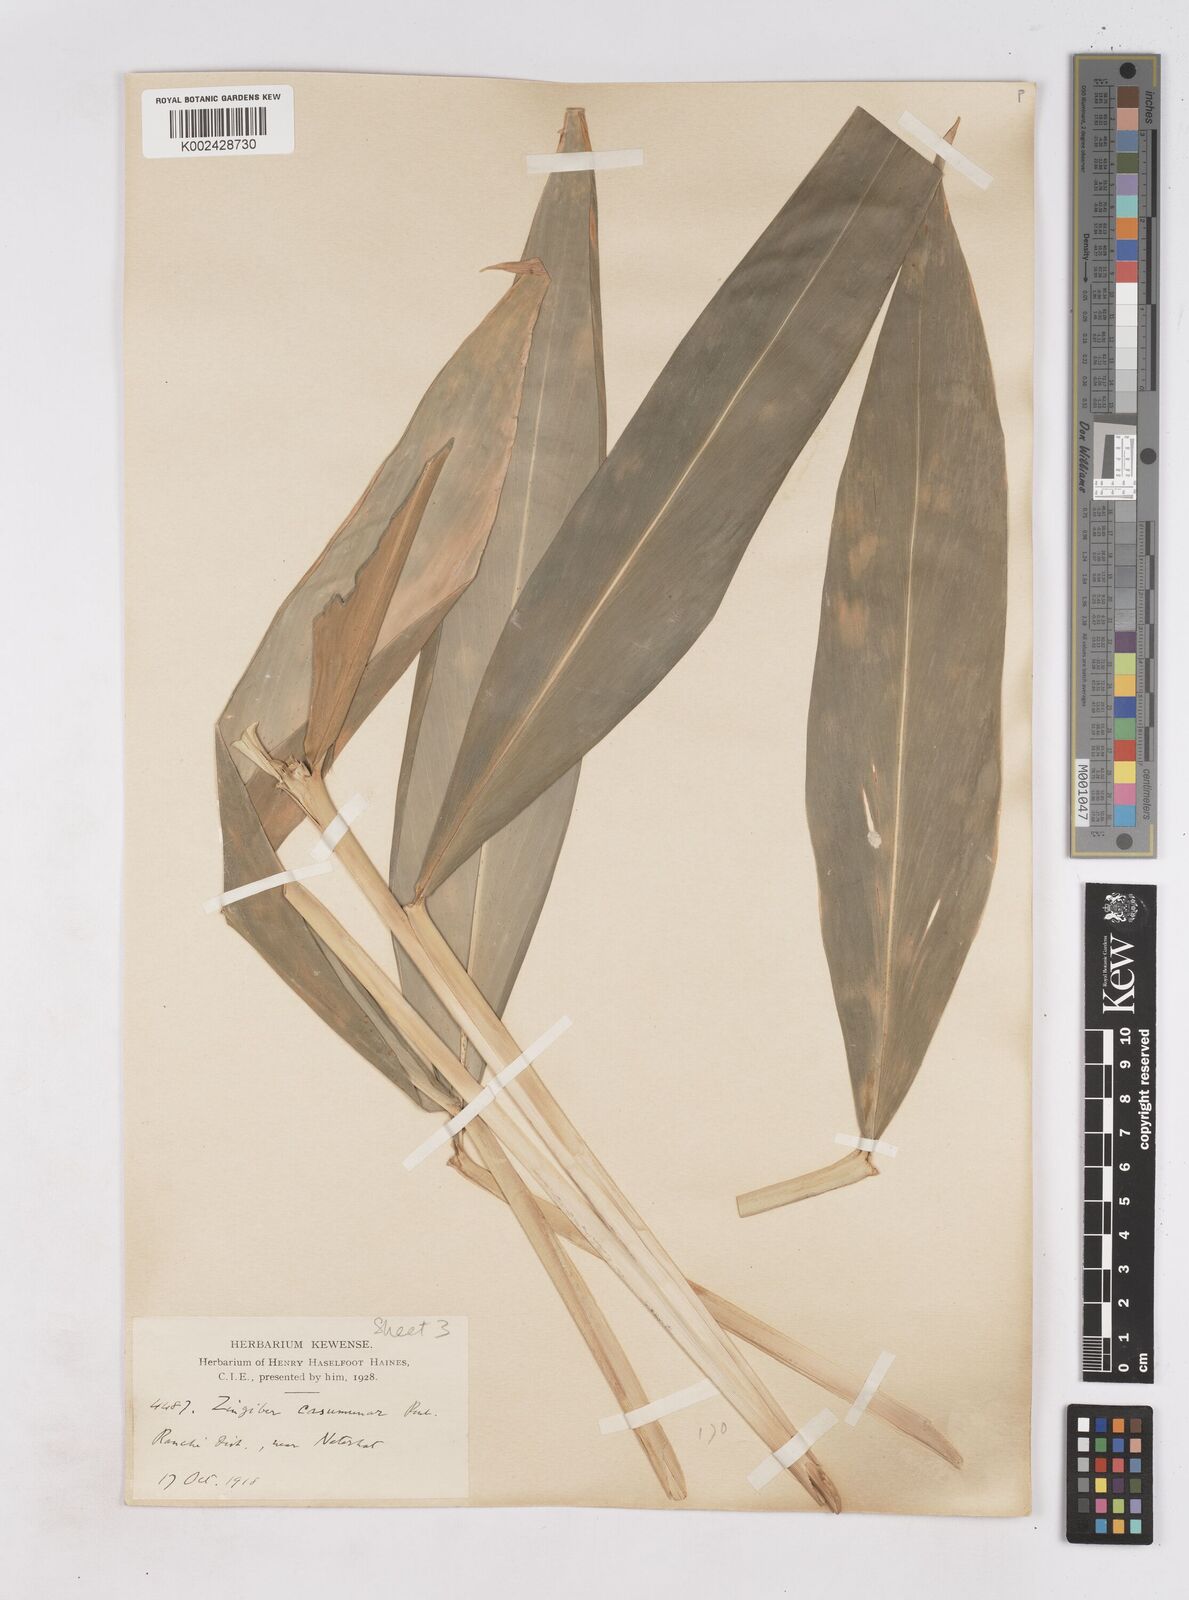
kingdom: Plantae
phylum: Tracheophyta
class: Liliopsida
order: Zingiberales
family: Zingiberaceae
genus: Zingiber
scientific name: Zingiber montanum
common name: Bengal ginger
